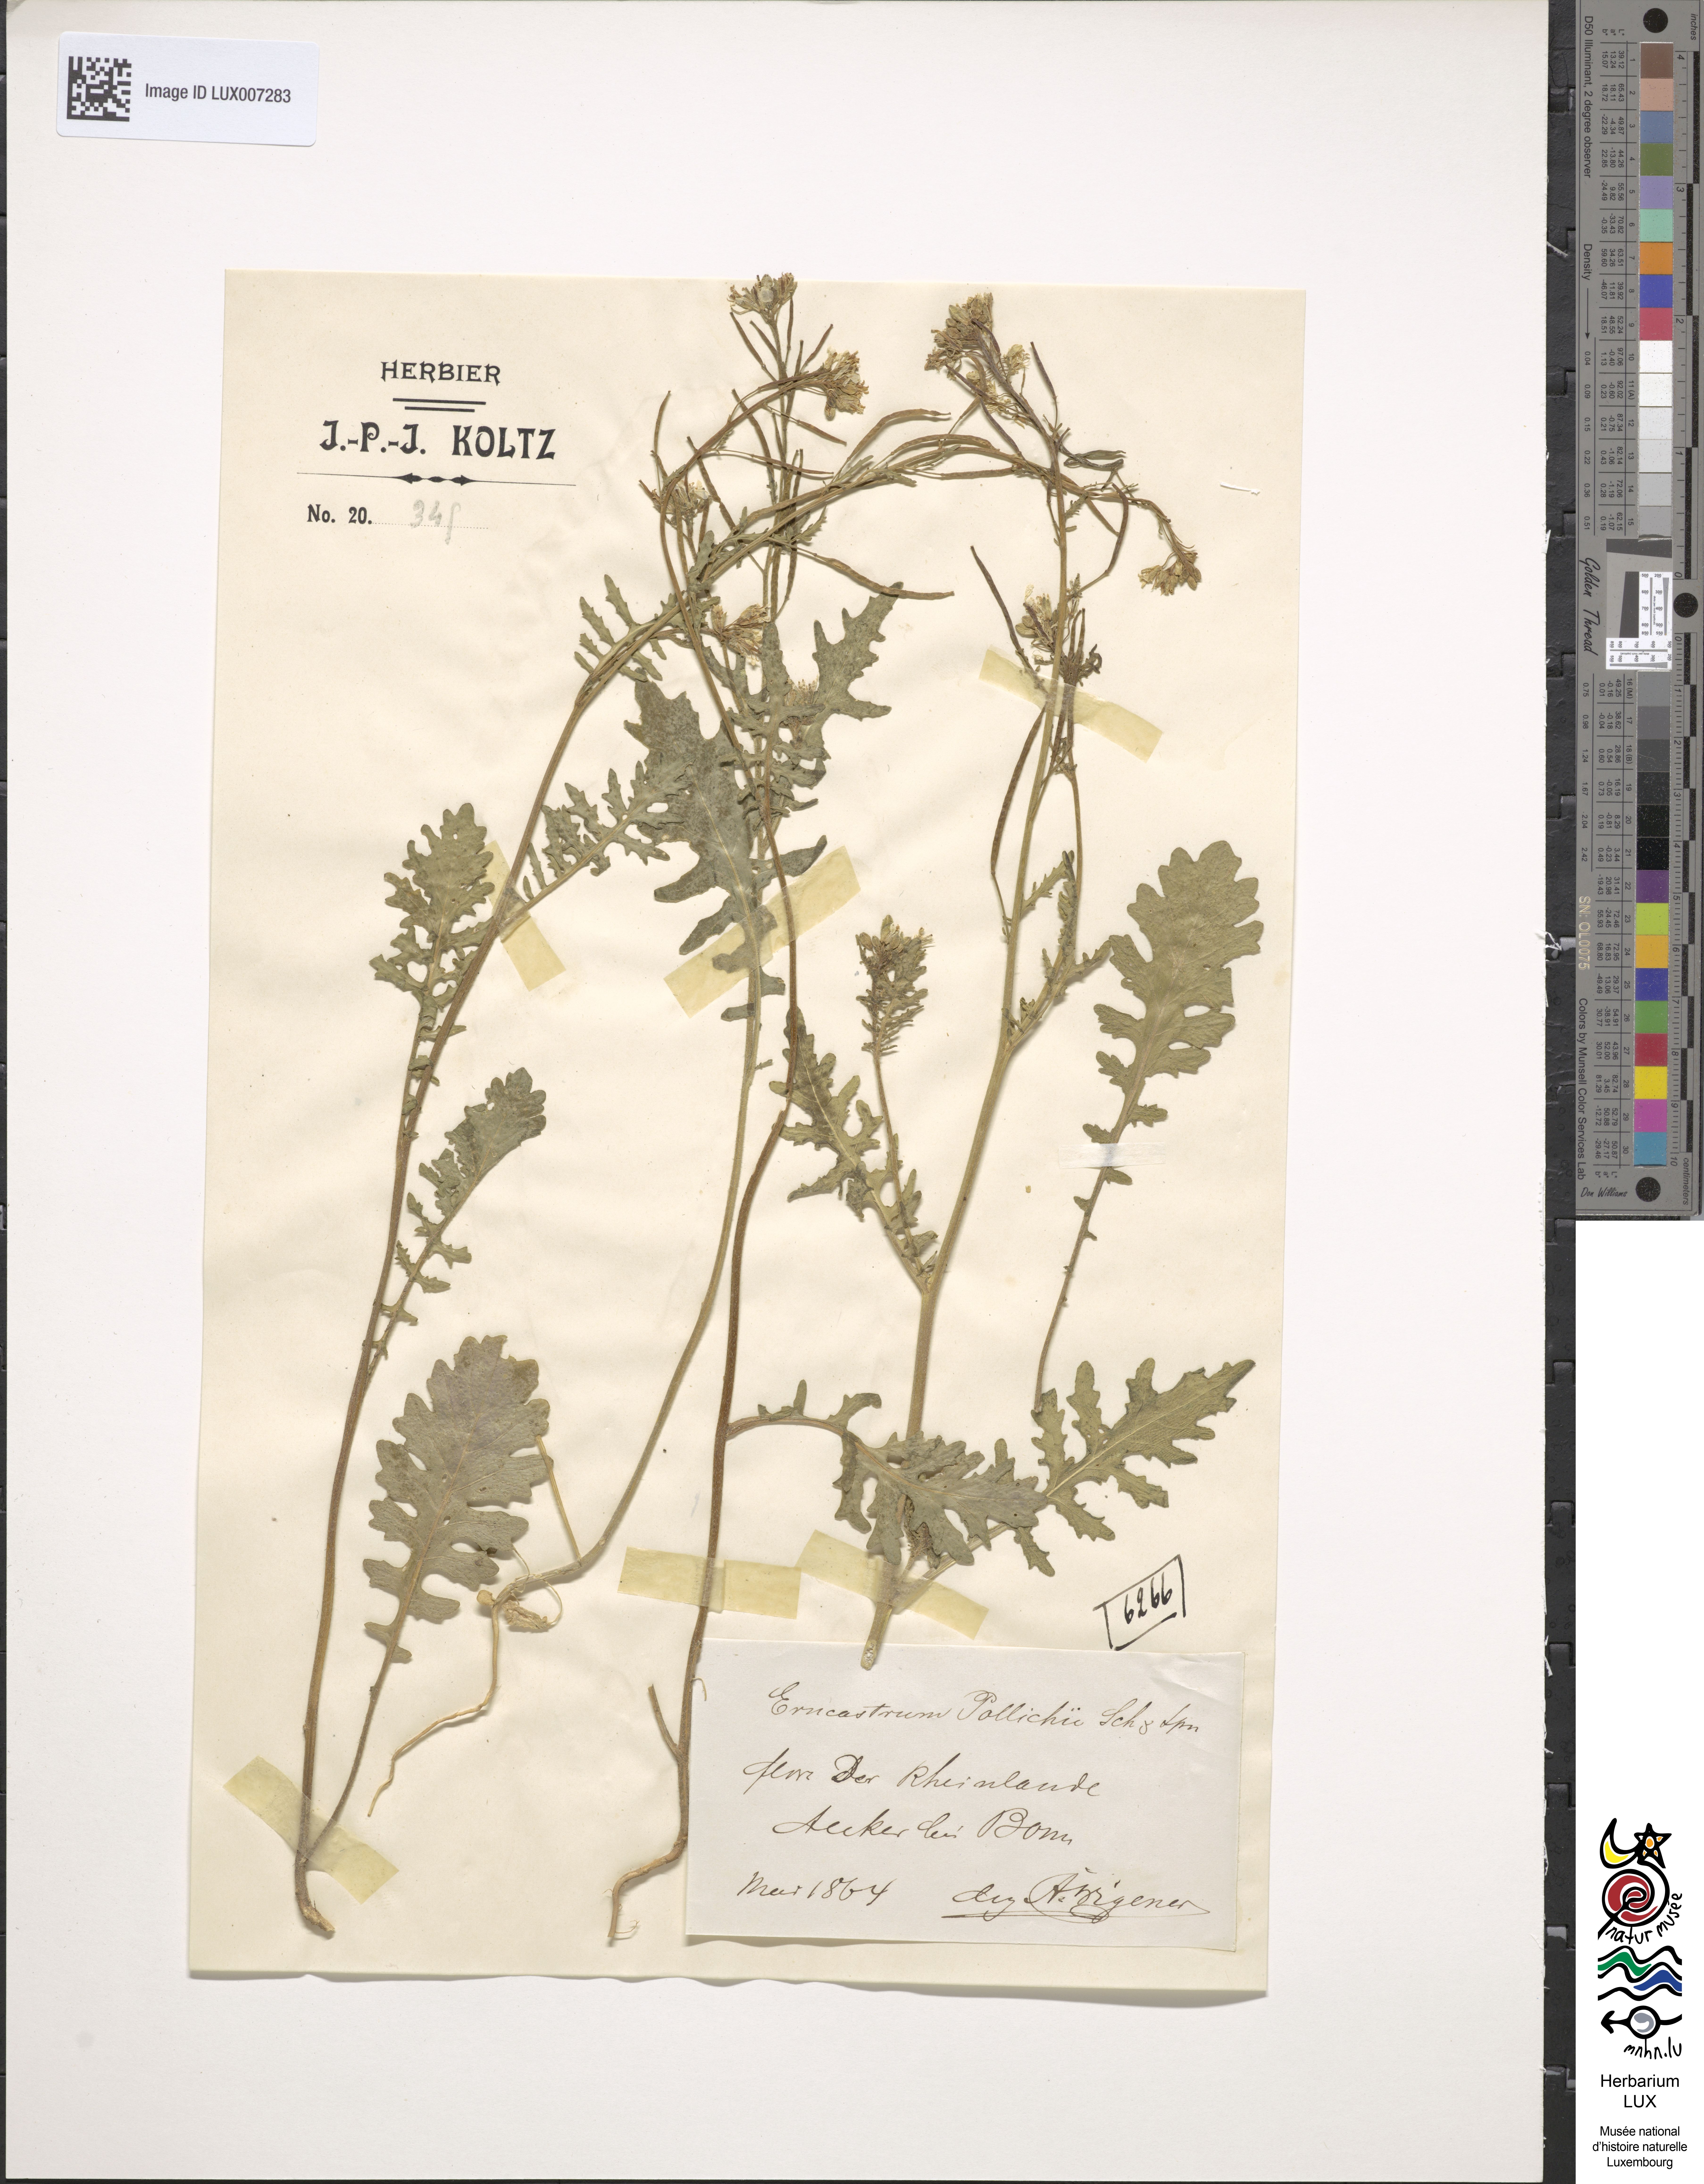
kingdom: Plantae
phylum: Tracheophyta
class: Magnoliopsida
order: Brassicales
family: Brassicaceae
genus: Erucastrum
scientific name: Erucastrum gallicum
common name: Hairy rocket
